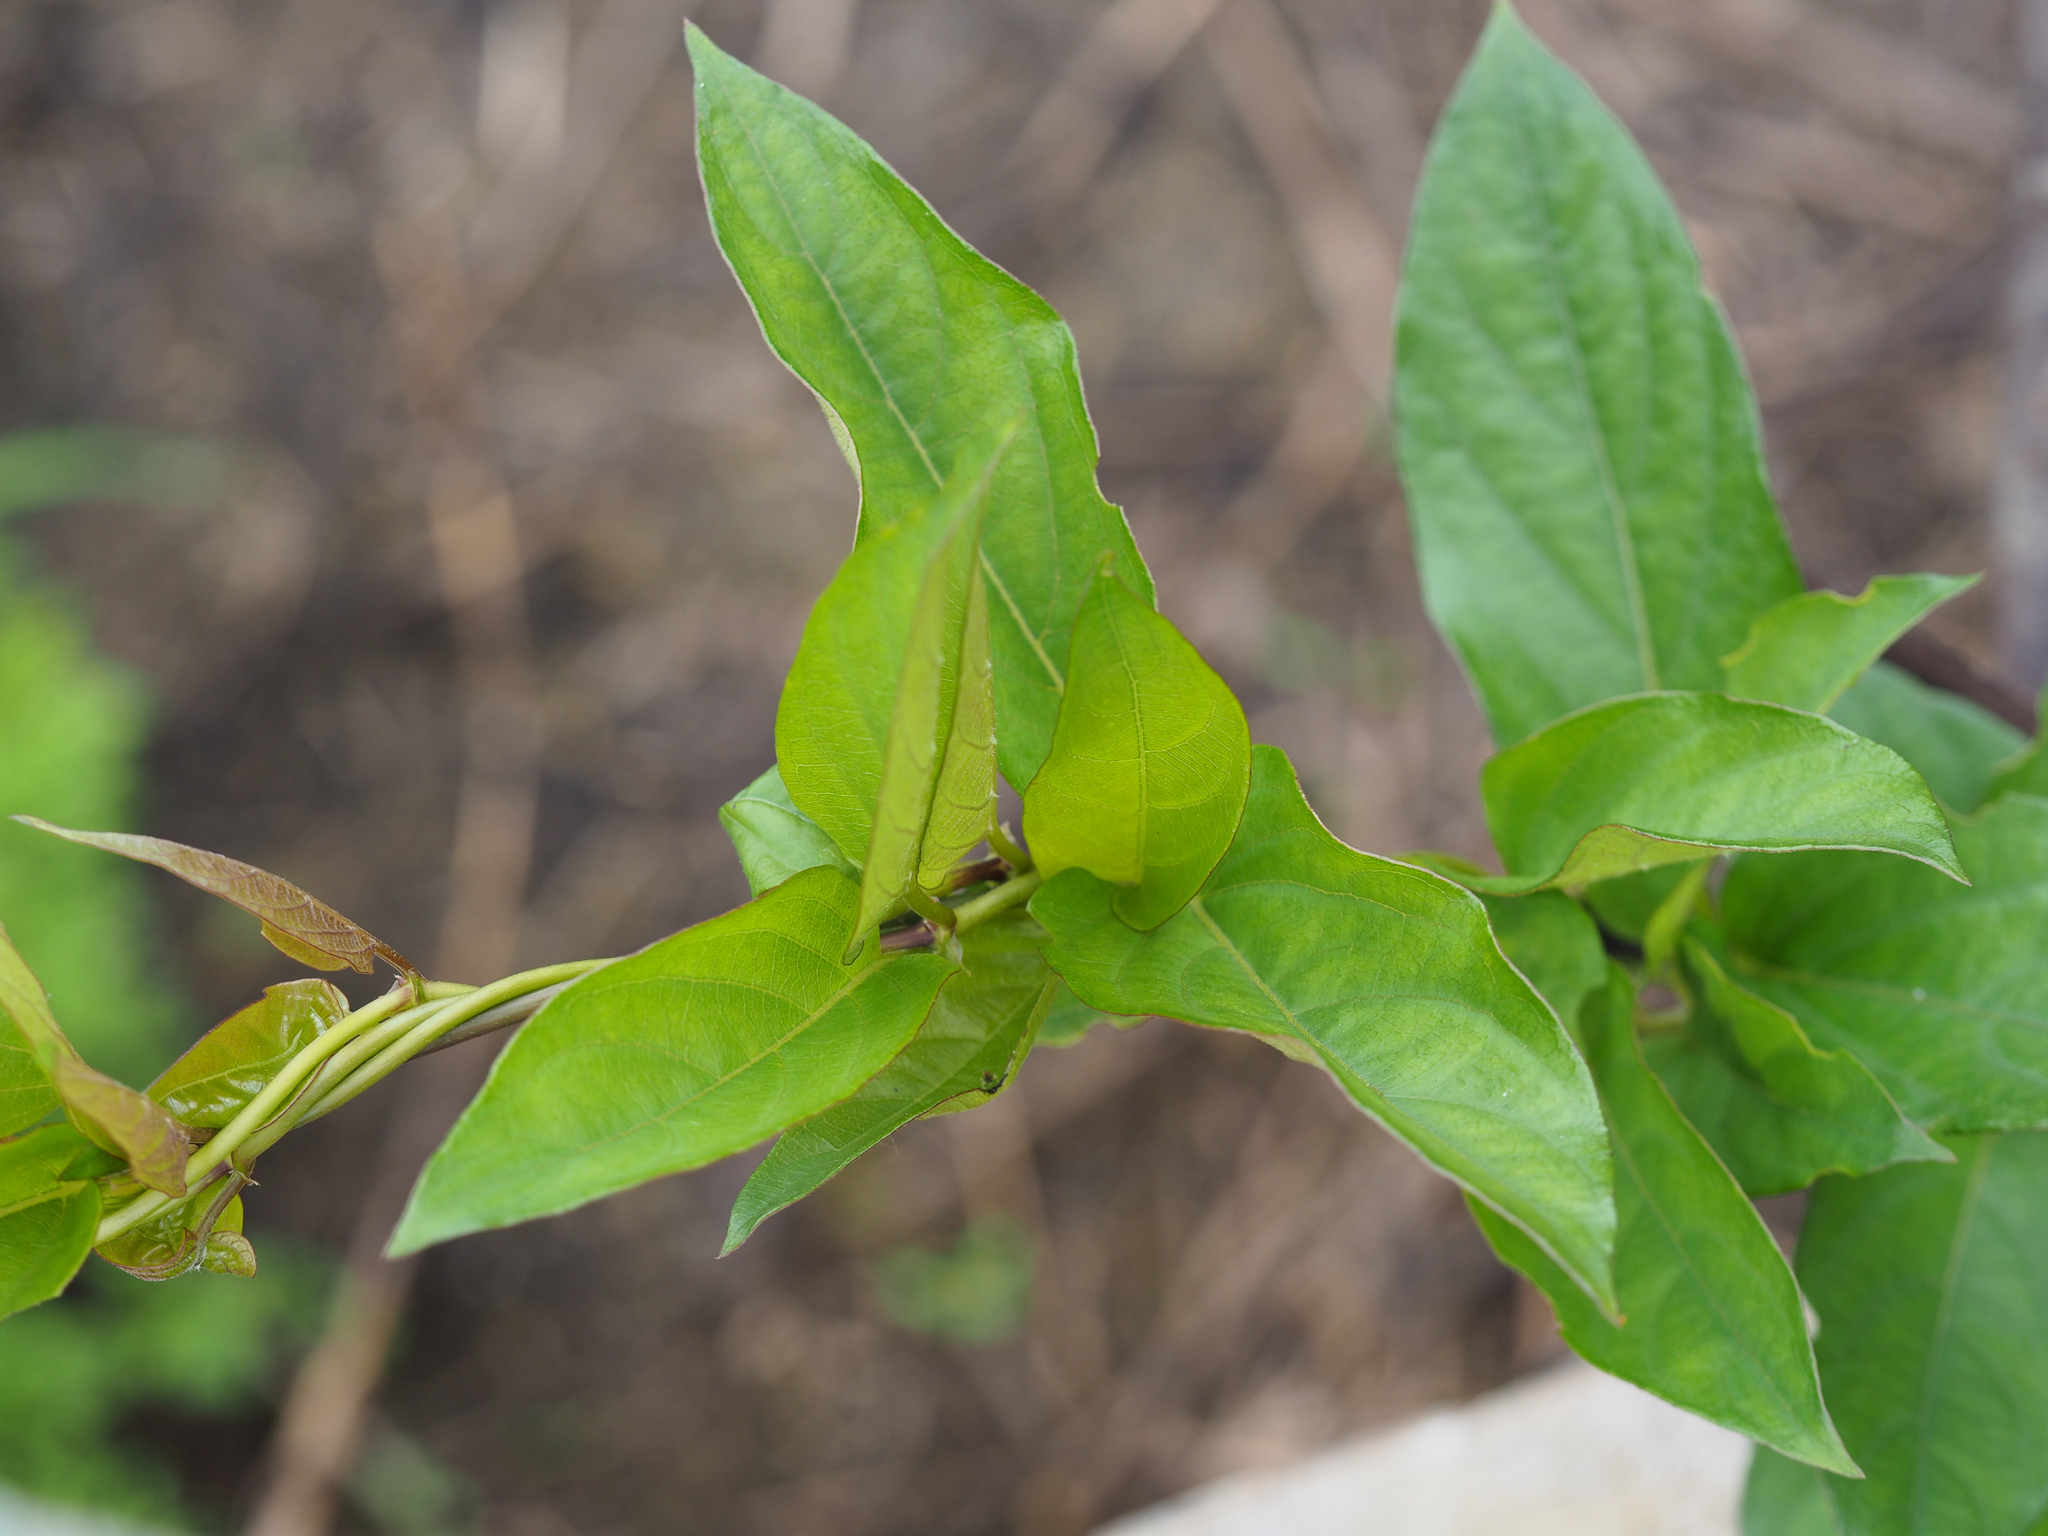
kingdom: Plantae
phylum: Tracheophyta
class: Magnoliopsida
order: Gentianales
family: Rubiaceae
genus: Paederia
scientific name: Paederia foetida
